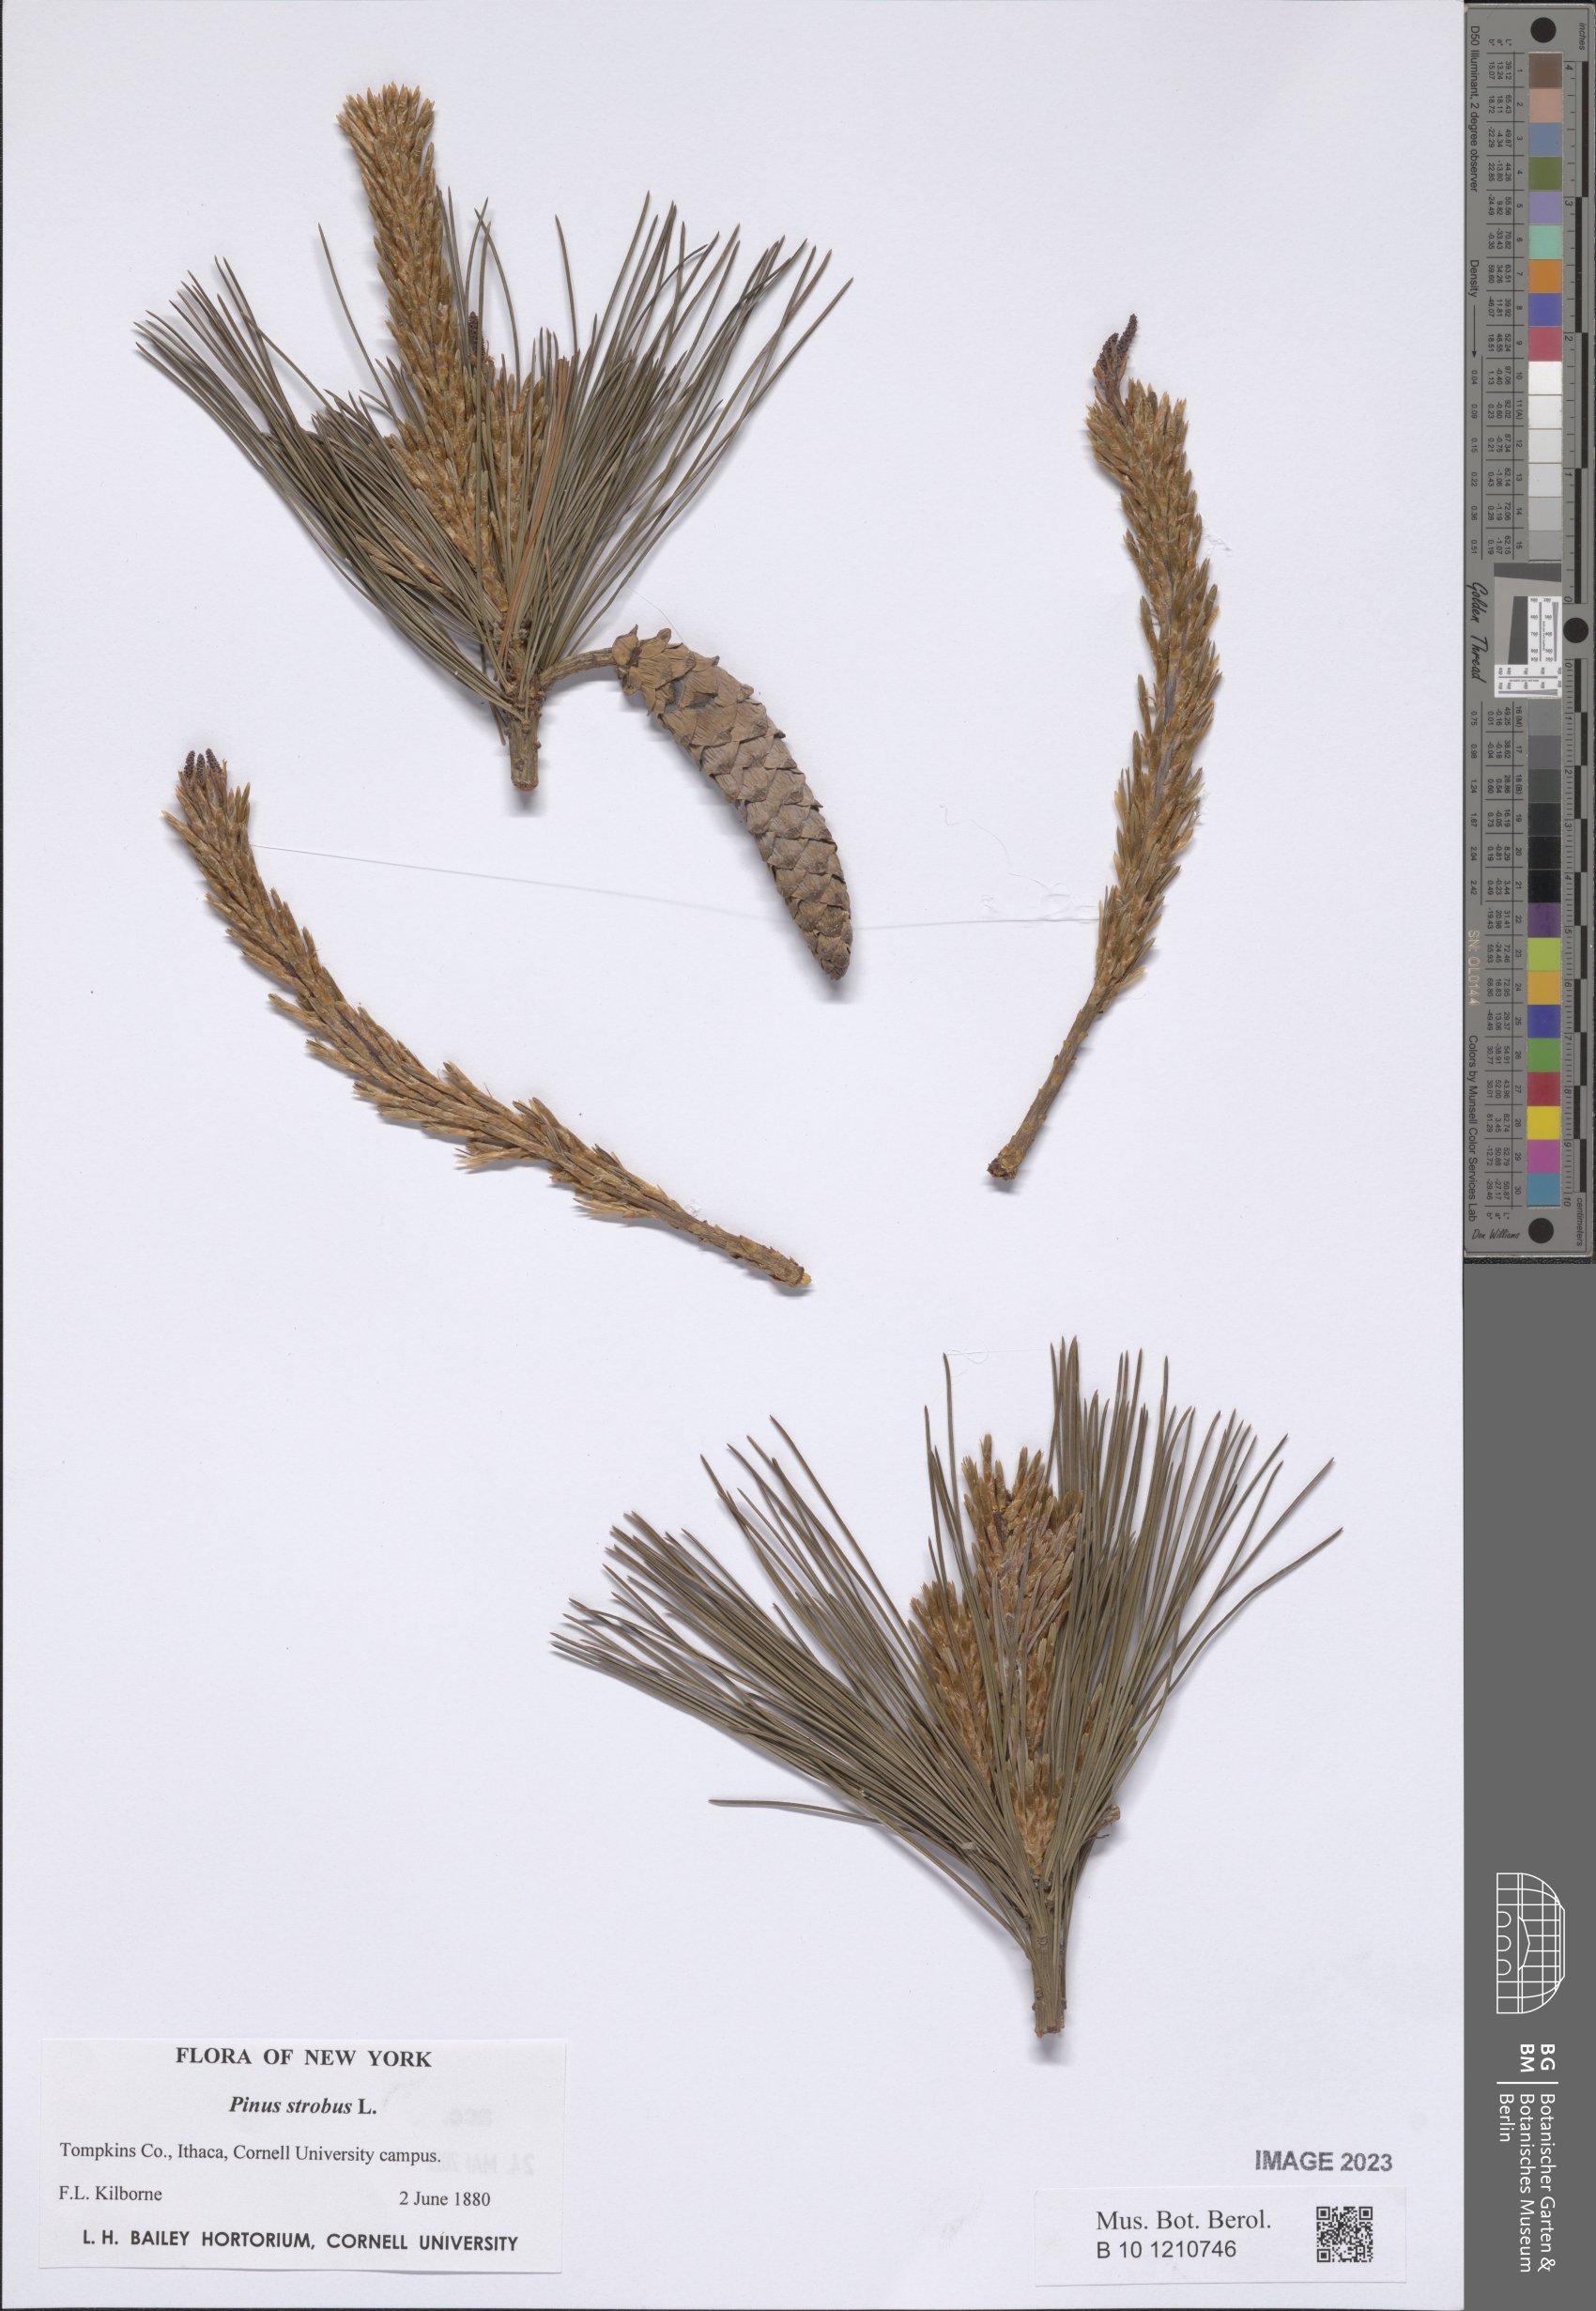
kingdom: Plantae
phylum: Tracheophyta
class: Pinopsida
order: Pinales
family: Pinaceae
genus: Pinus
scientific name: Pinus strobus
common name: Weymouth pine
